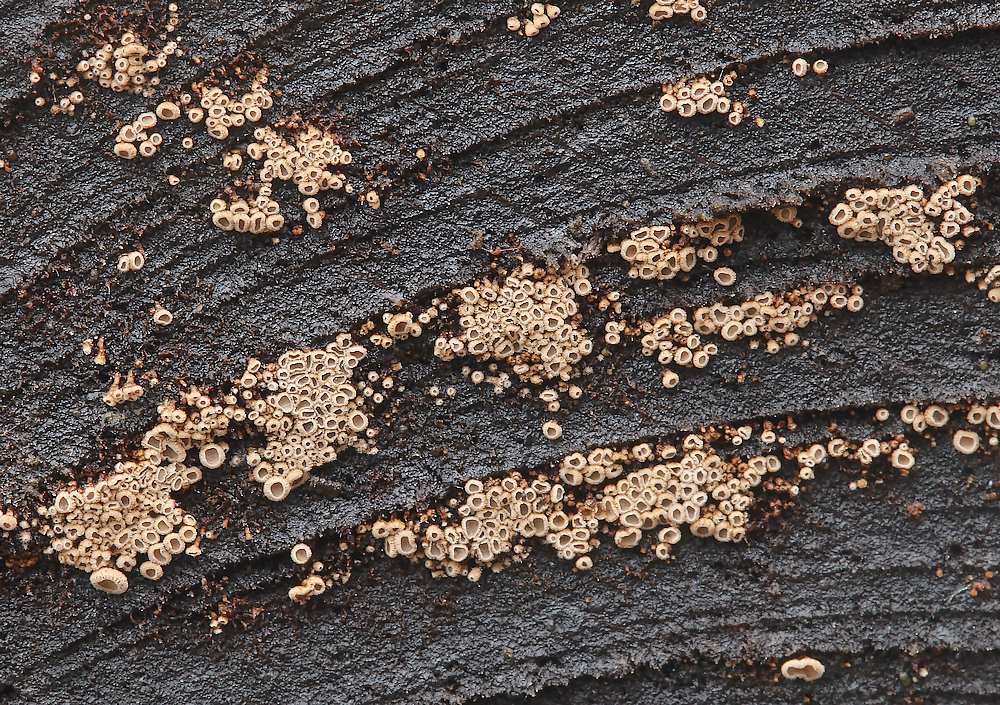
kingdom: Fungi
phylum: Basidiomycota
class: Agaricomycetes
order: Agaricales
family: Niaceae
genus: Merismodes
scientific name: Merismodes anomala
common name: almindelig læderskål
